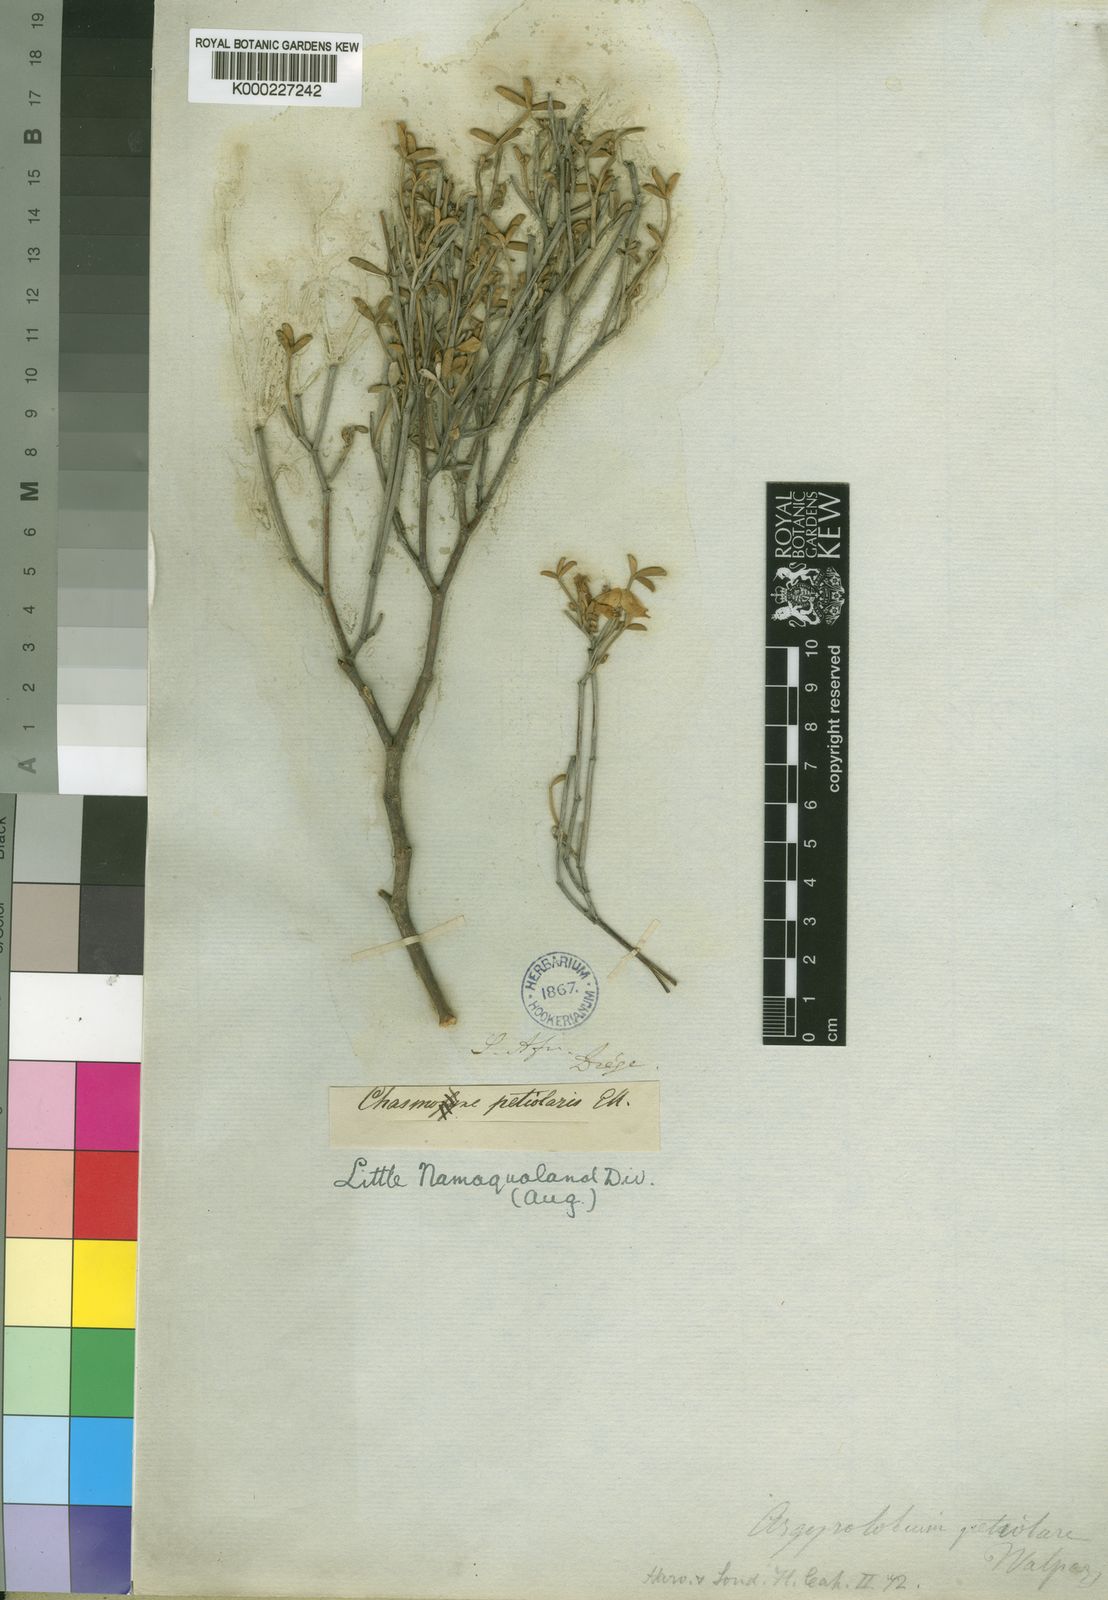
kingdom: Plantae
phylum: Tracheophyta
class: Magnoliopsida
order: Fabales
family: Fabaceae
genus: Argyrolobium
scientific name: Argyrolobium
